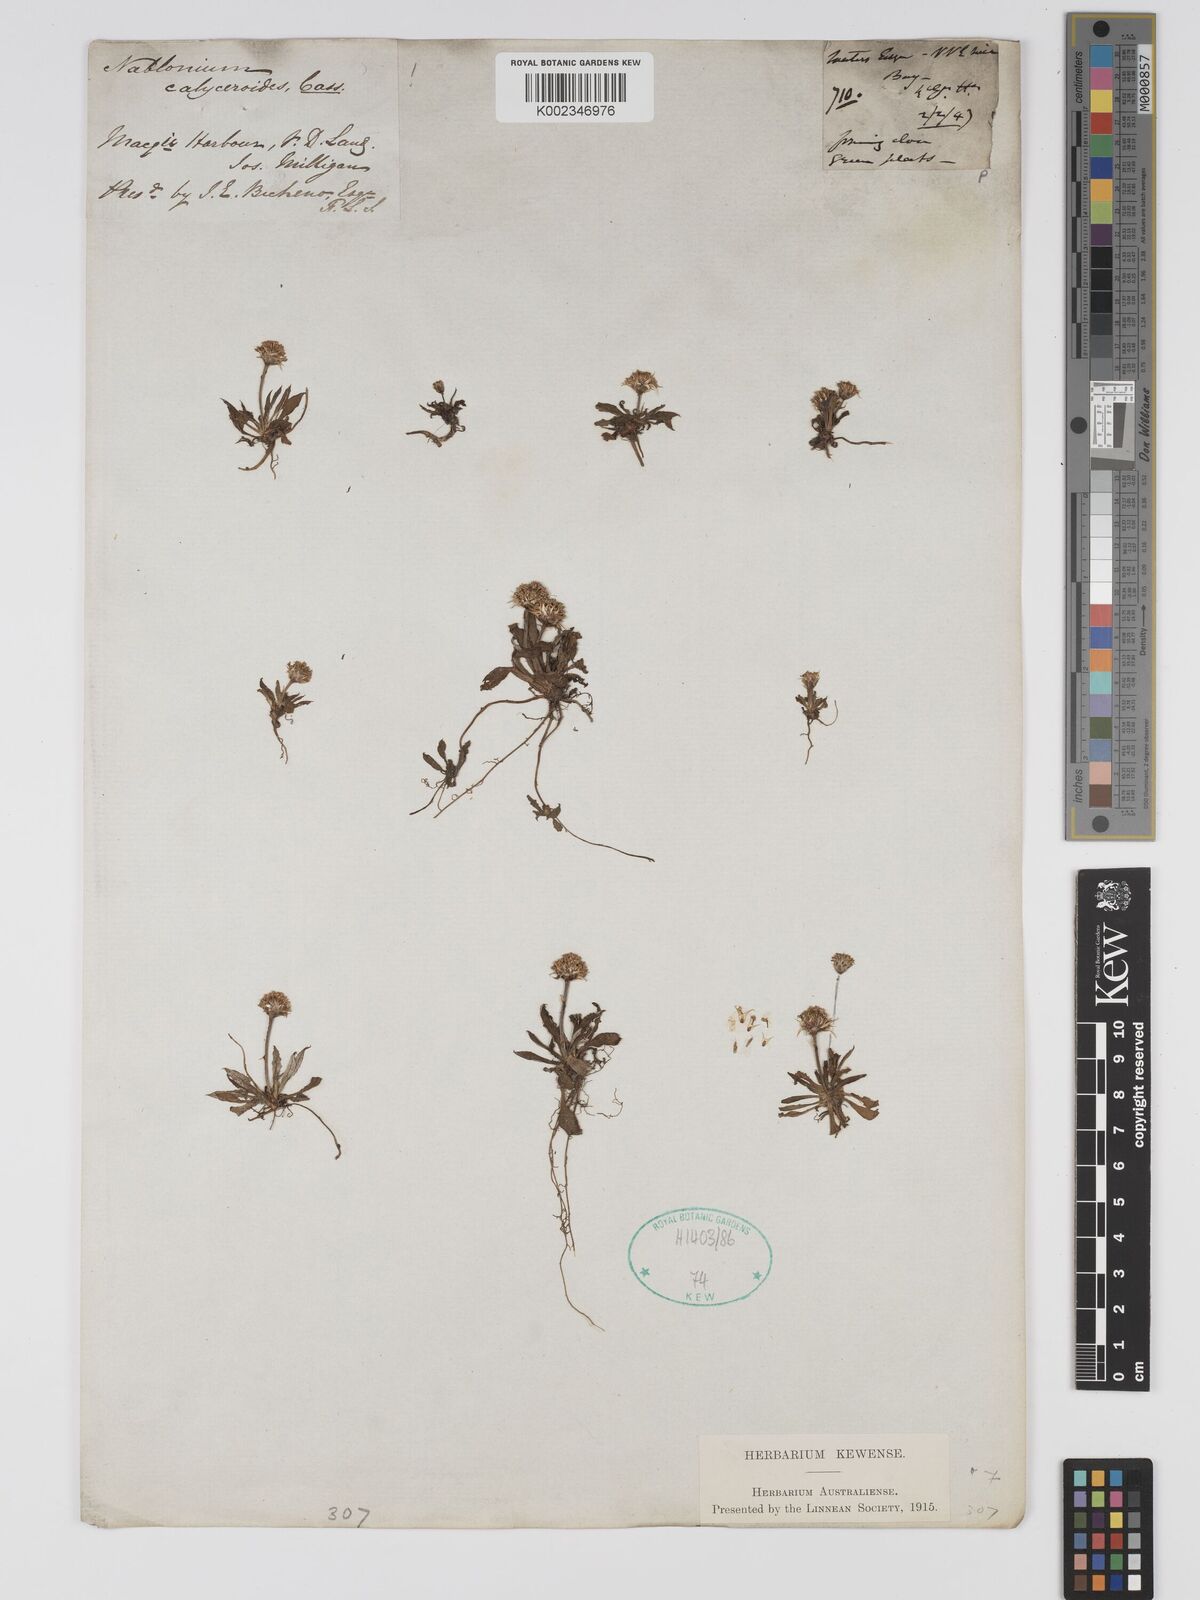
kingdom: Plantae
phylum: Tracheophyta
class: Magnoliopsida
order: Asterales
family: Asteraceae
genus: Ammobium
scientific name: Ammobium calyceroides
